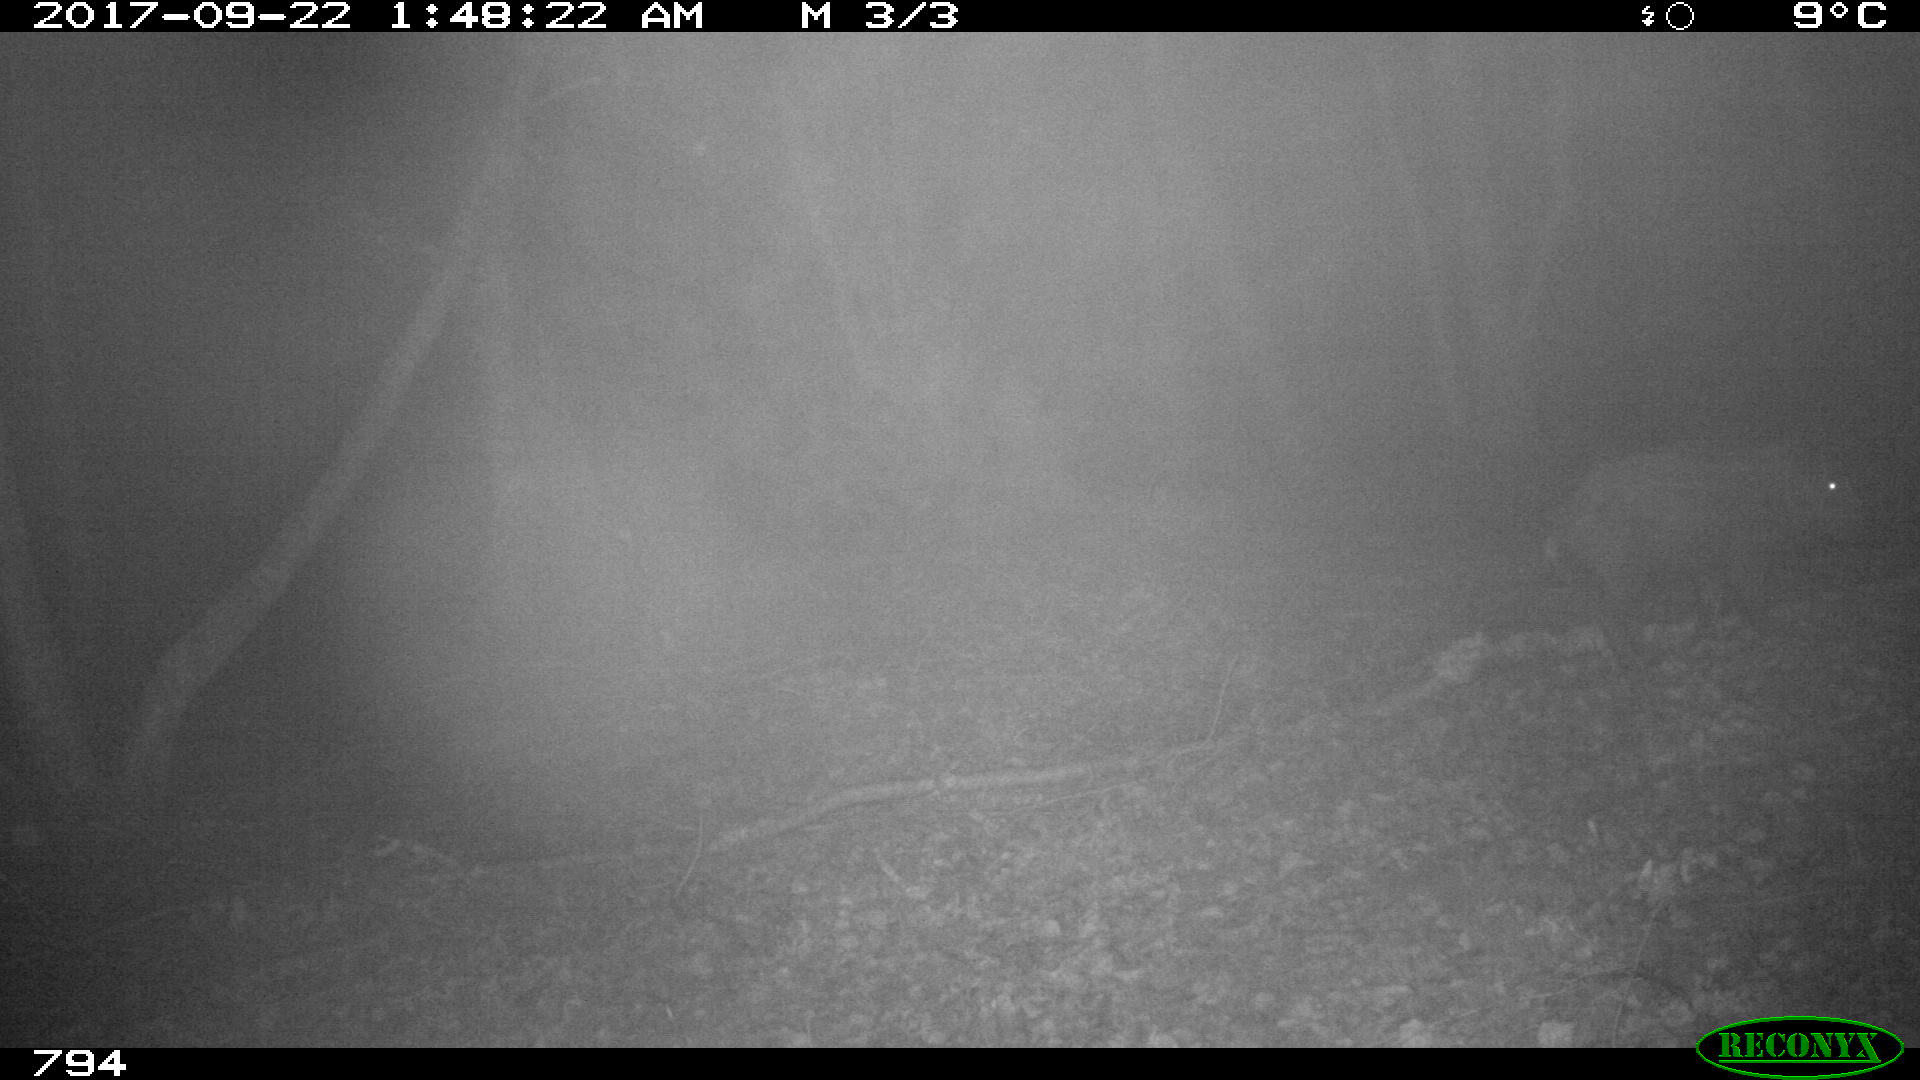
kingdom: Animalia
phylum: Chordata
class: Mammalia
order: Artiodactyla
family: Suidae
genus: Sus
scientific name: Sus scrofa
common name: Wild boar
